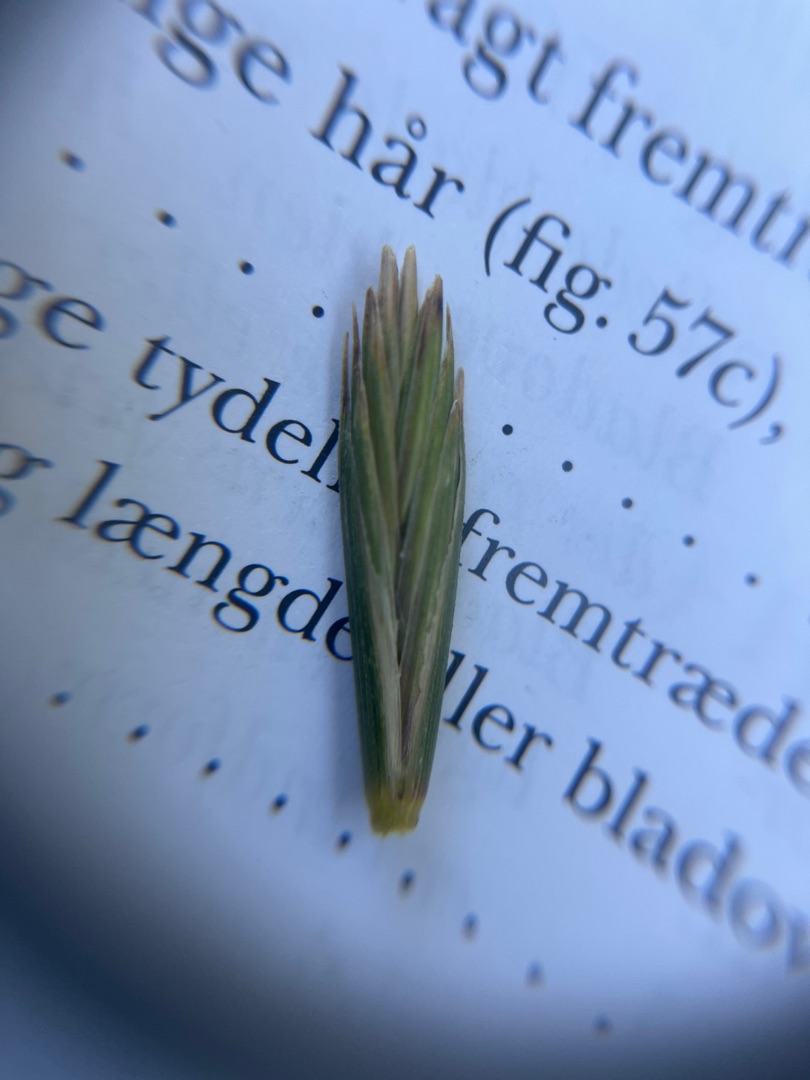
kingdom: Plantae
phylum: Tracheophyta
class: Liliopsida
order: Poales
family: Poaceae
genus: Elymus
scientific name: Elymus repens
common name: Almindelig kvik
